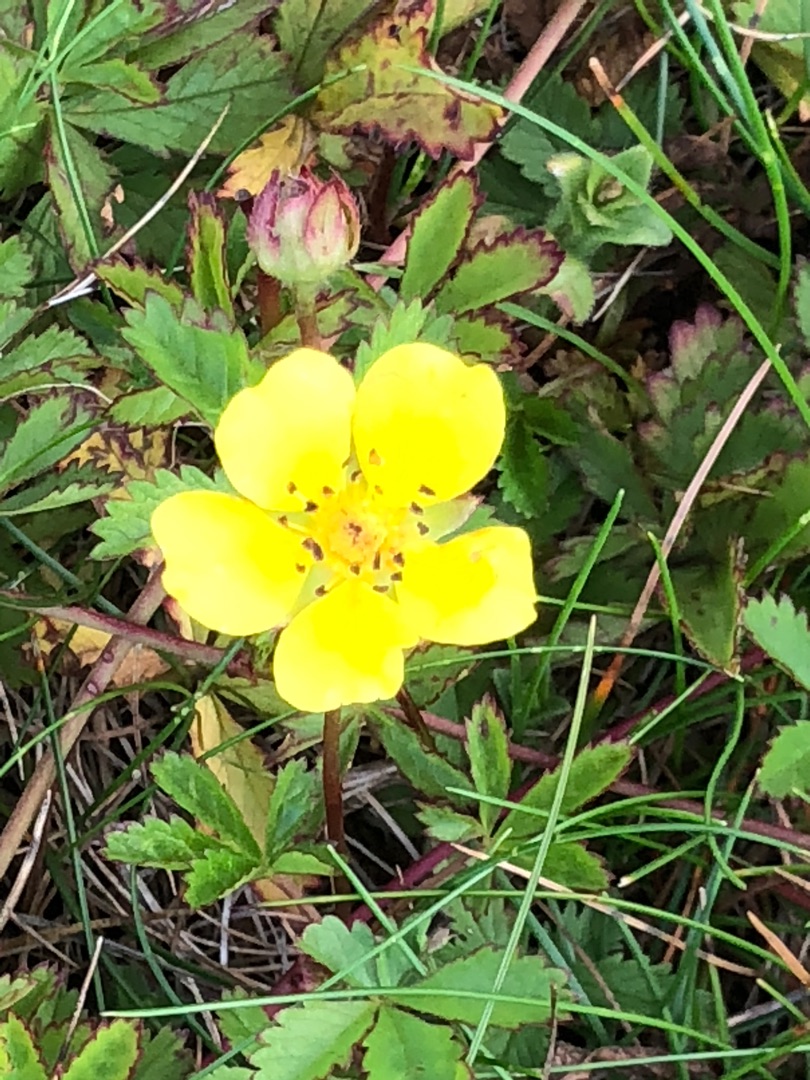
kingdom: Plantae
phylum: Tracheophyta
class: Magnoliopsida
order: Rosales
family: Rosaceae
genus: Potentilla
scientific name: Potentilla reptans
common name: Krybende potentil
